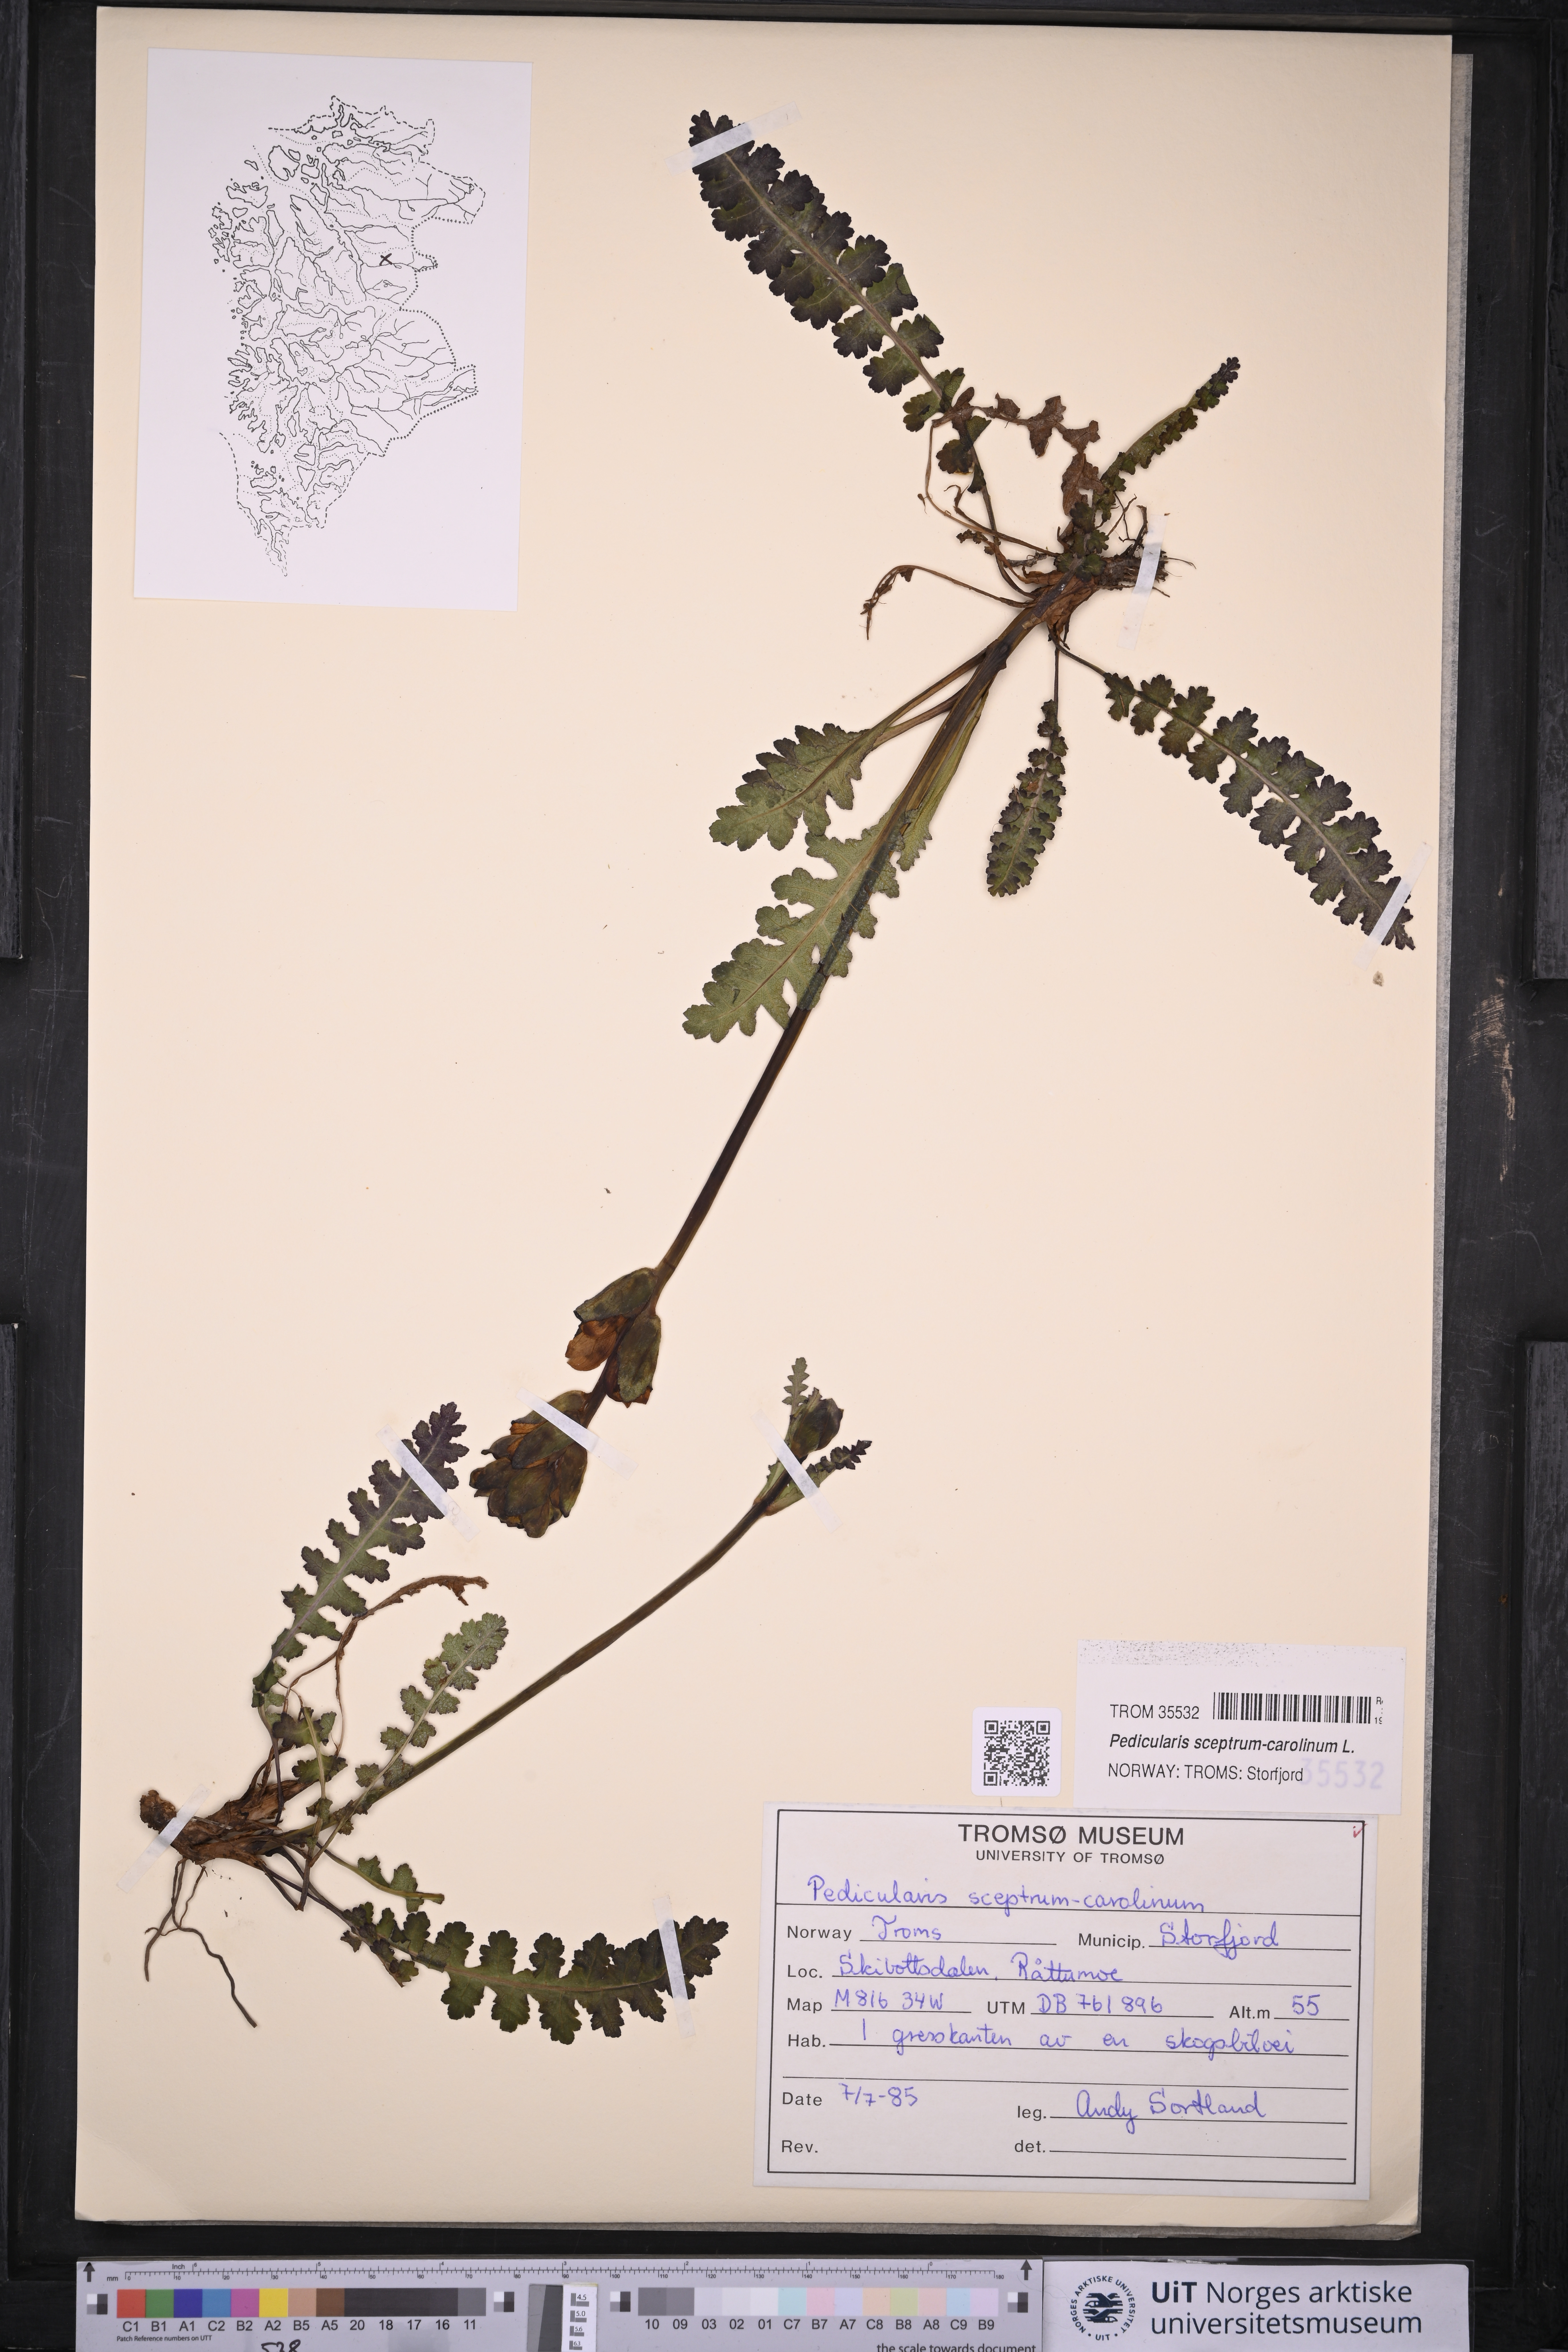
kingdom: Plantae
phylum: Tracheophyta
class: Magnoliopsida
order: Lamiales
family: Orobanchaceae
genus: Pedicularis
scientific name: Pedicularis sceptrum-carolinum
